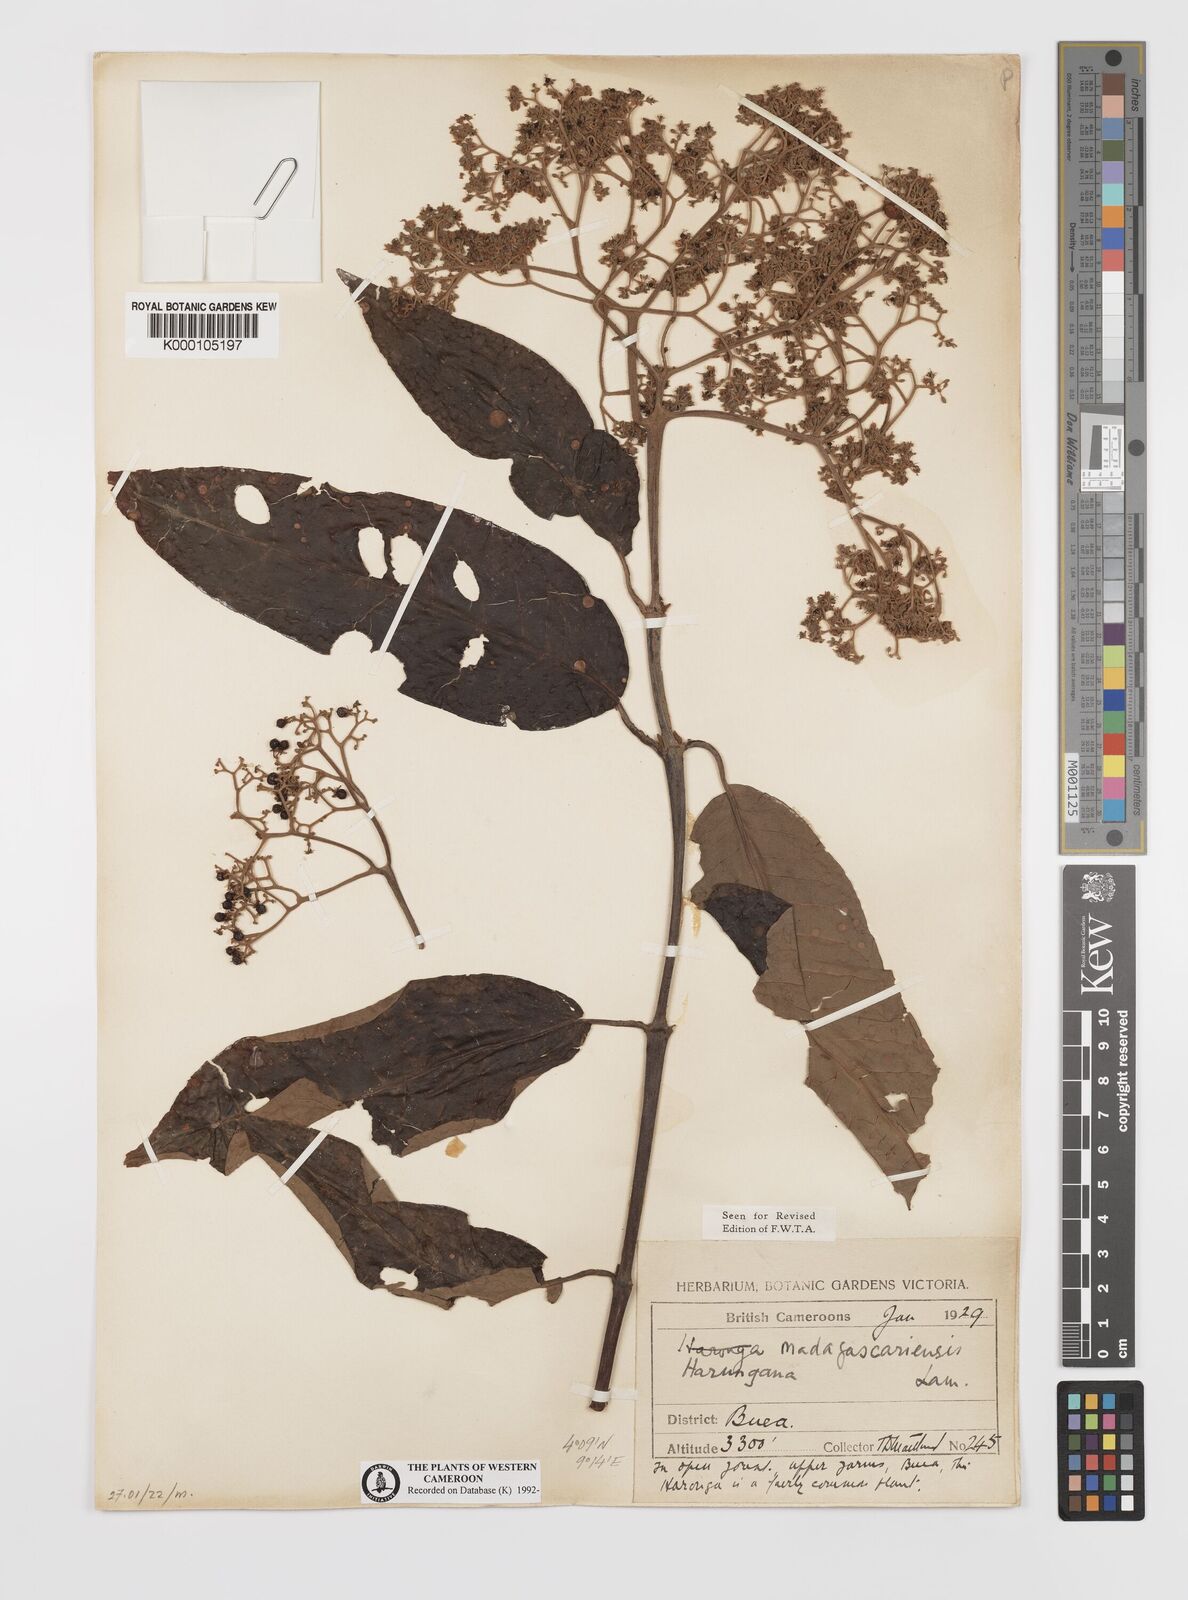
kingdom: Plantae
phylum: Tracheophyta
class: Magnoliopsida
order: Malpighiales
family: Hypericaceae
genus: Harungana
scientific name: Harungana madagascariensis
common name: Orange milktree
